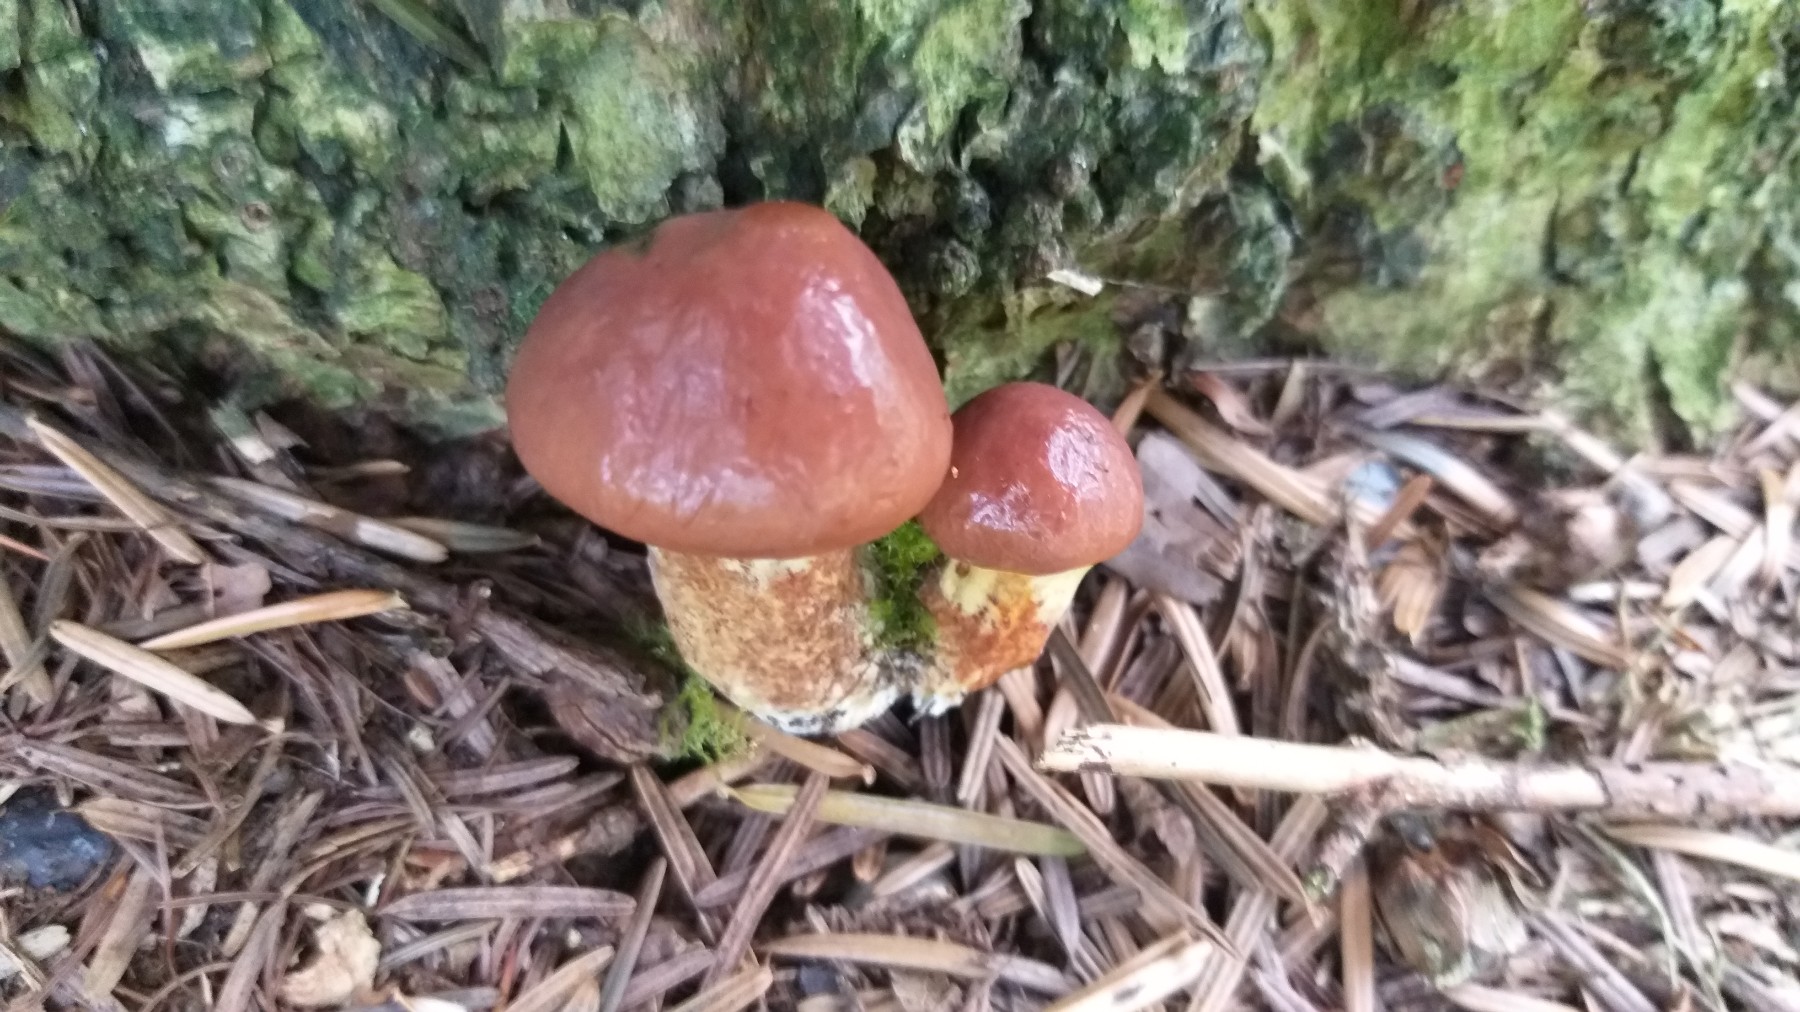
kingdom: Fungi
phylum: Basidiomycota
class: Agaricomycetes
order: Boletales
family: Suillaceae
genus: Suillus
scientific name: Suillus grevillei
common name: Larch bolete
